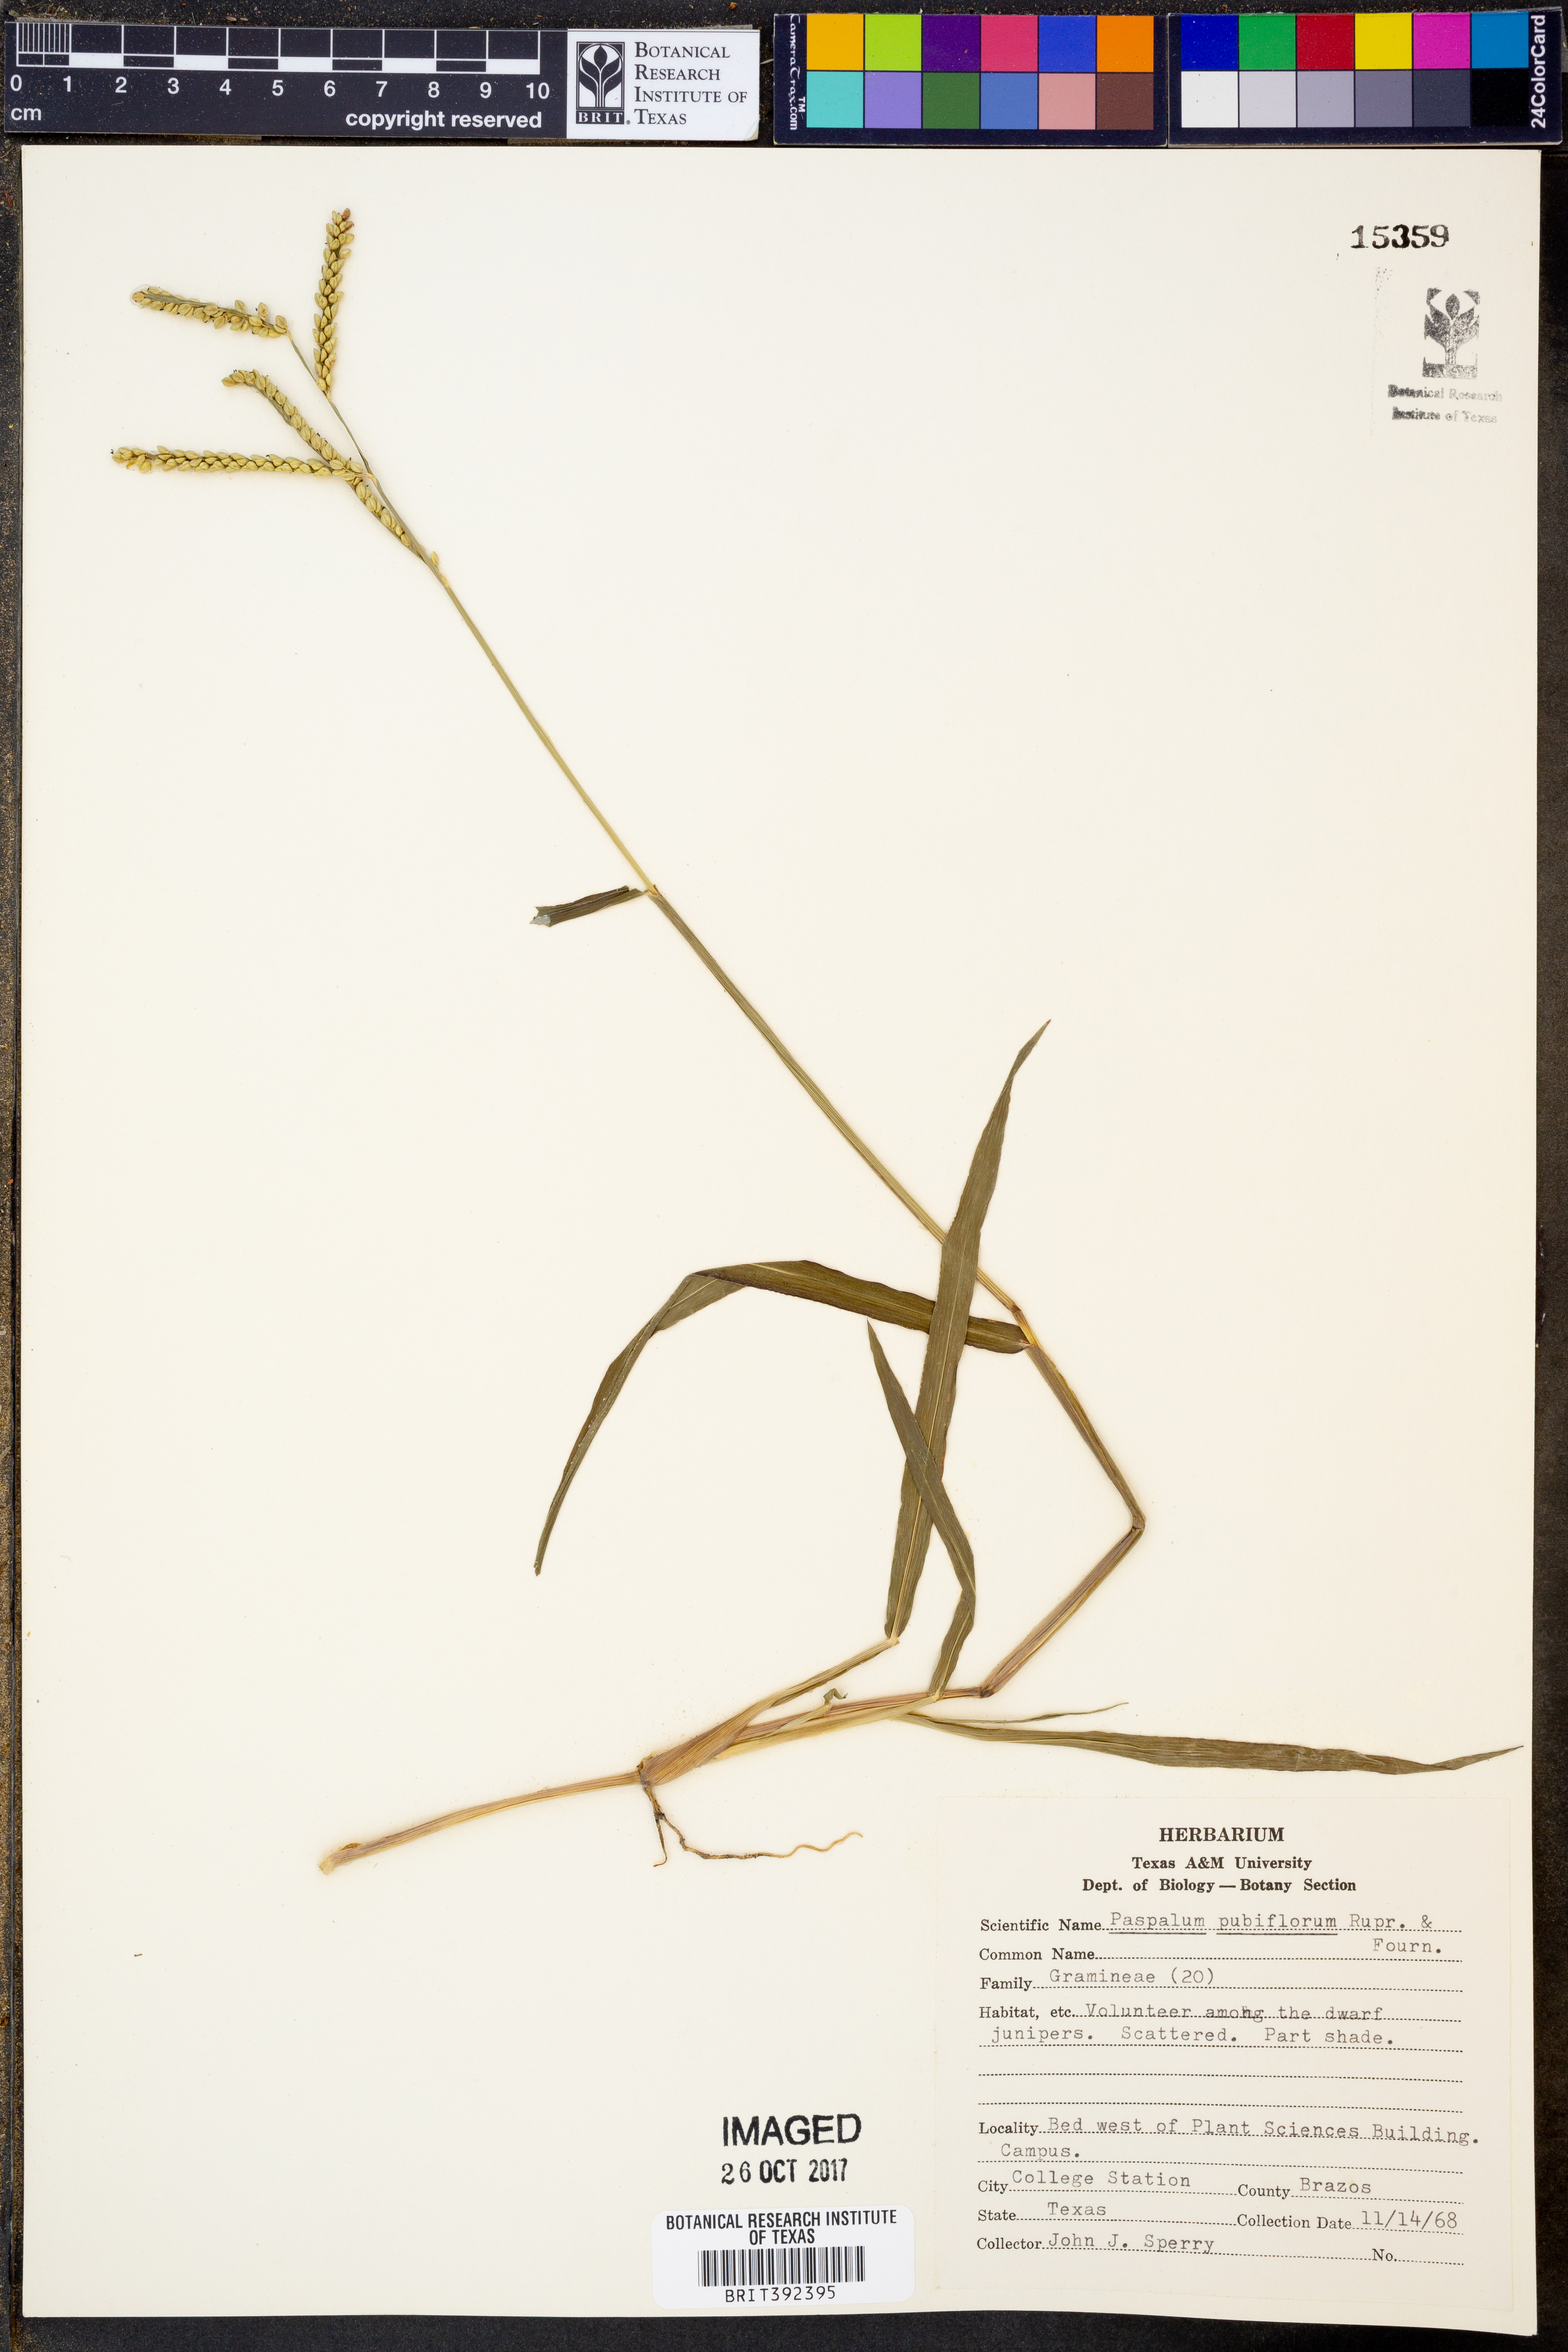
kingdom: Plantae
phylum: Tracheophyta
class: Liliopsida
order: Poales
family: Poaceae
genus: Paspalum
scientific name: Paspalum pubiflorum
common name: Hairy-seed paspalum
